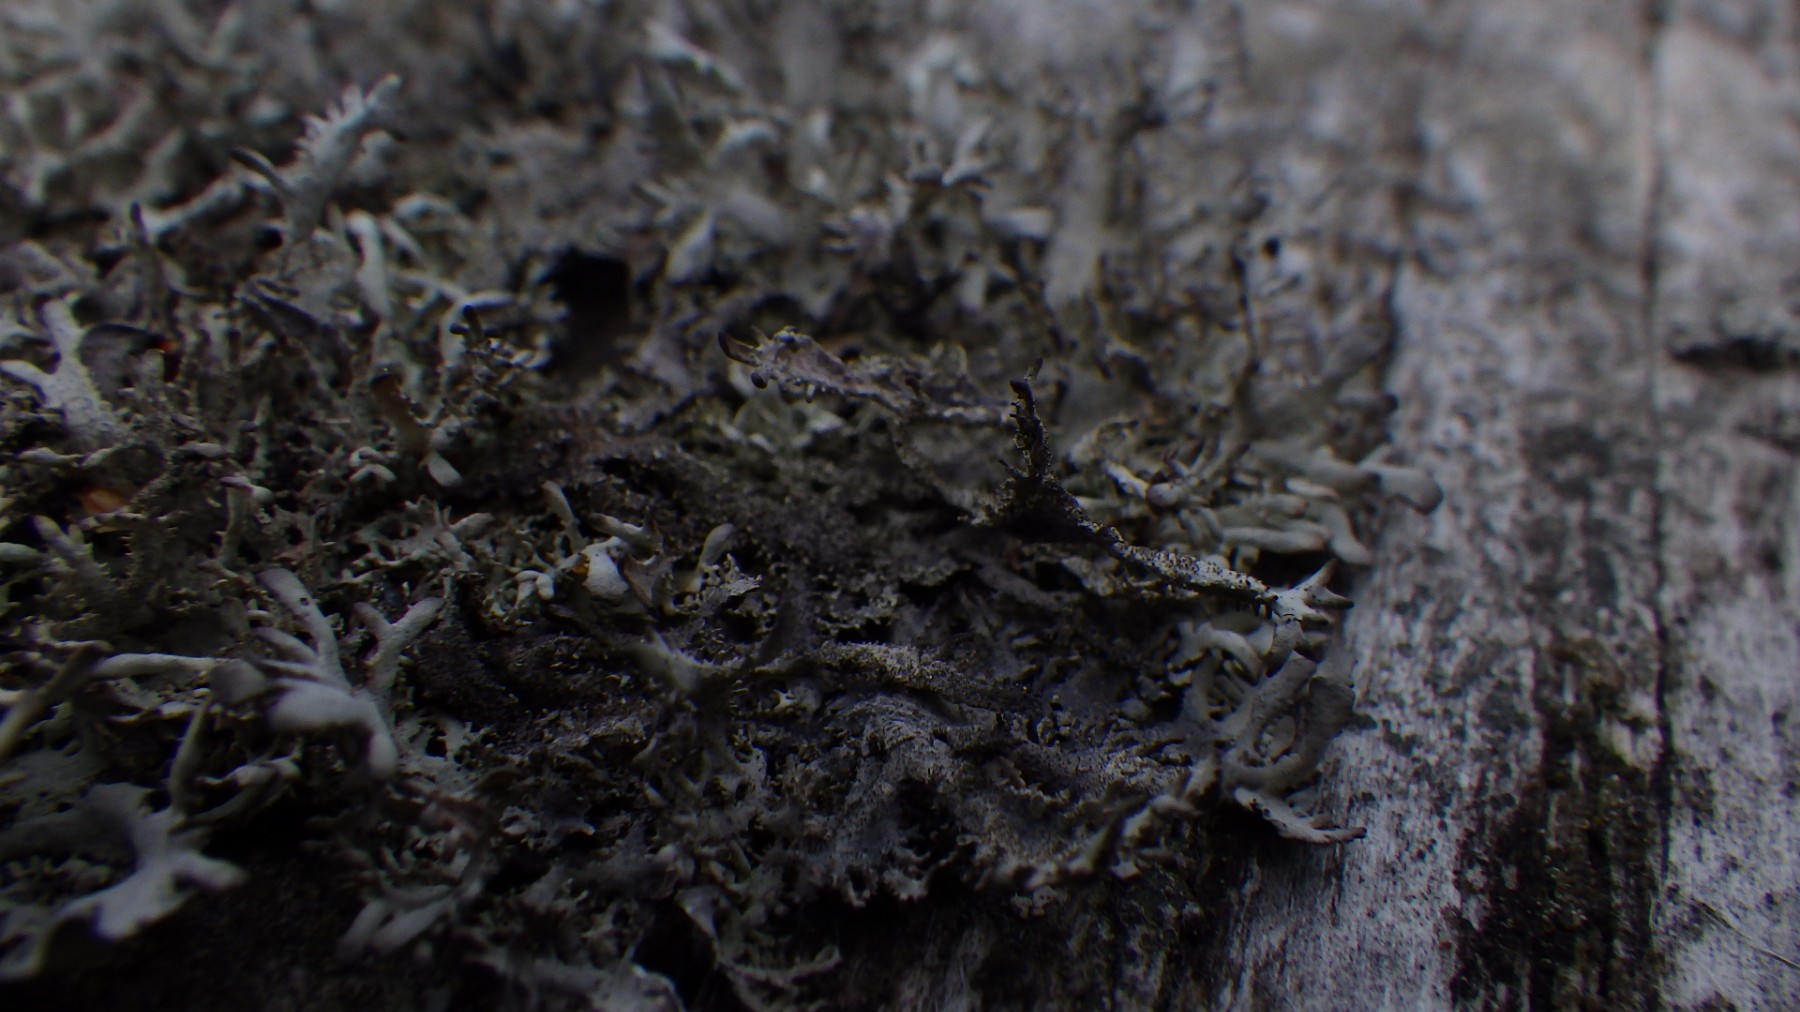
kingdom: Fungi
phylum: Ascomycota
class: Lecanoromycetes
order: Lecanorales
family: Parmeliaceae
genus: Pseudevernia
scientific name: Pseudevernia furfuracea
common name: grå fyrrelav
